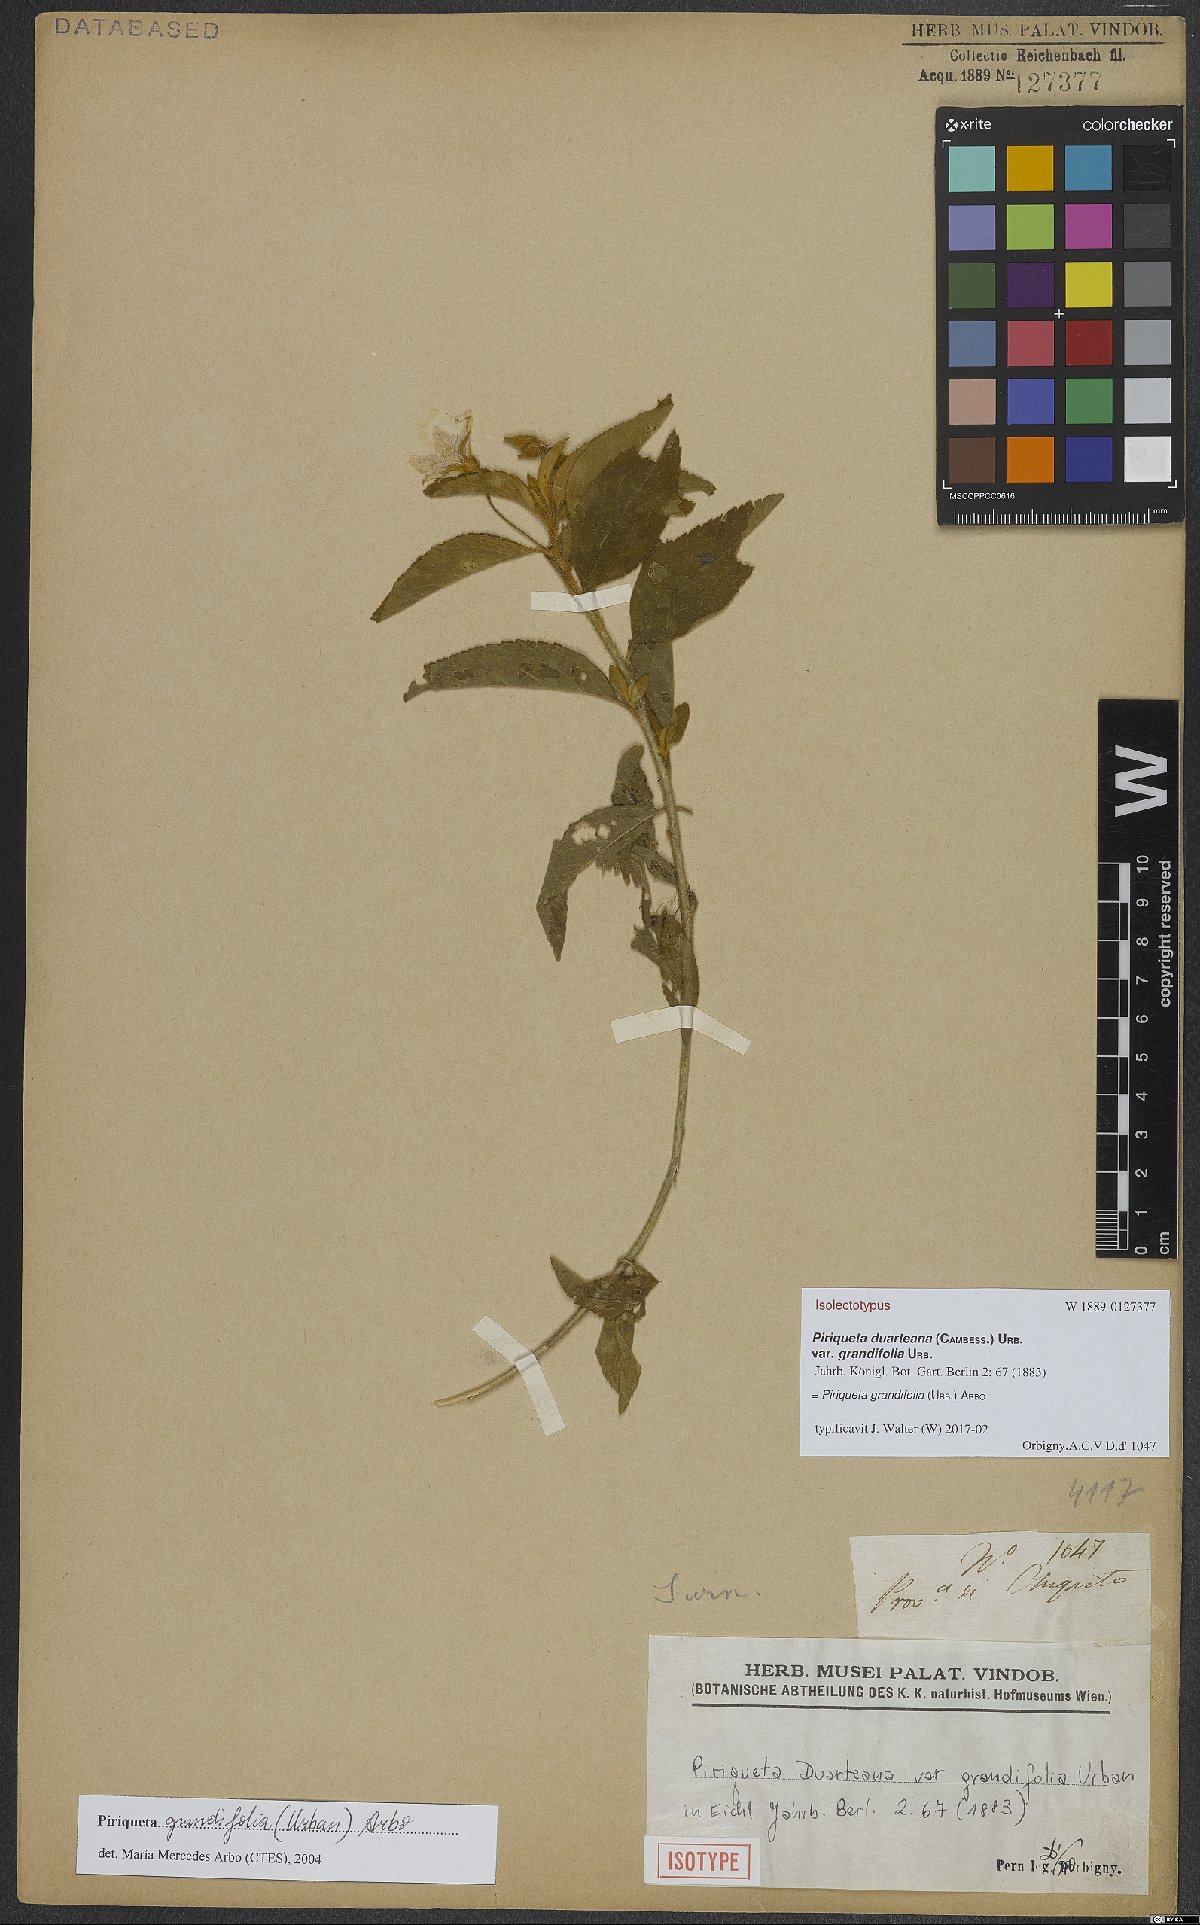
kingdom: Plantae
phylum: Tracheophyta
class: Magnoliopsida
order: Malpighiales
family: Turneraceae
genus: Piriqueta
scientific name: Piriqueta grandifolia
